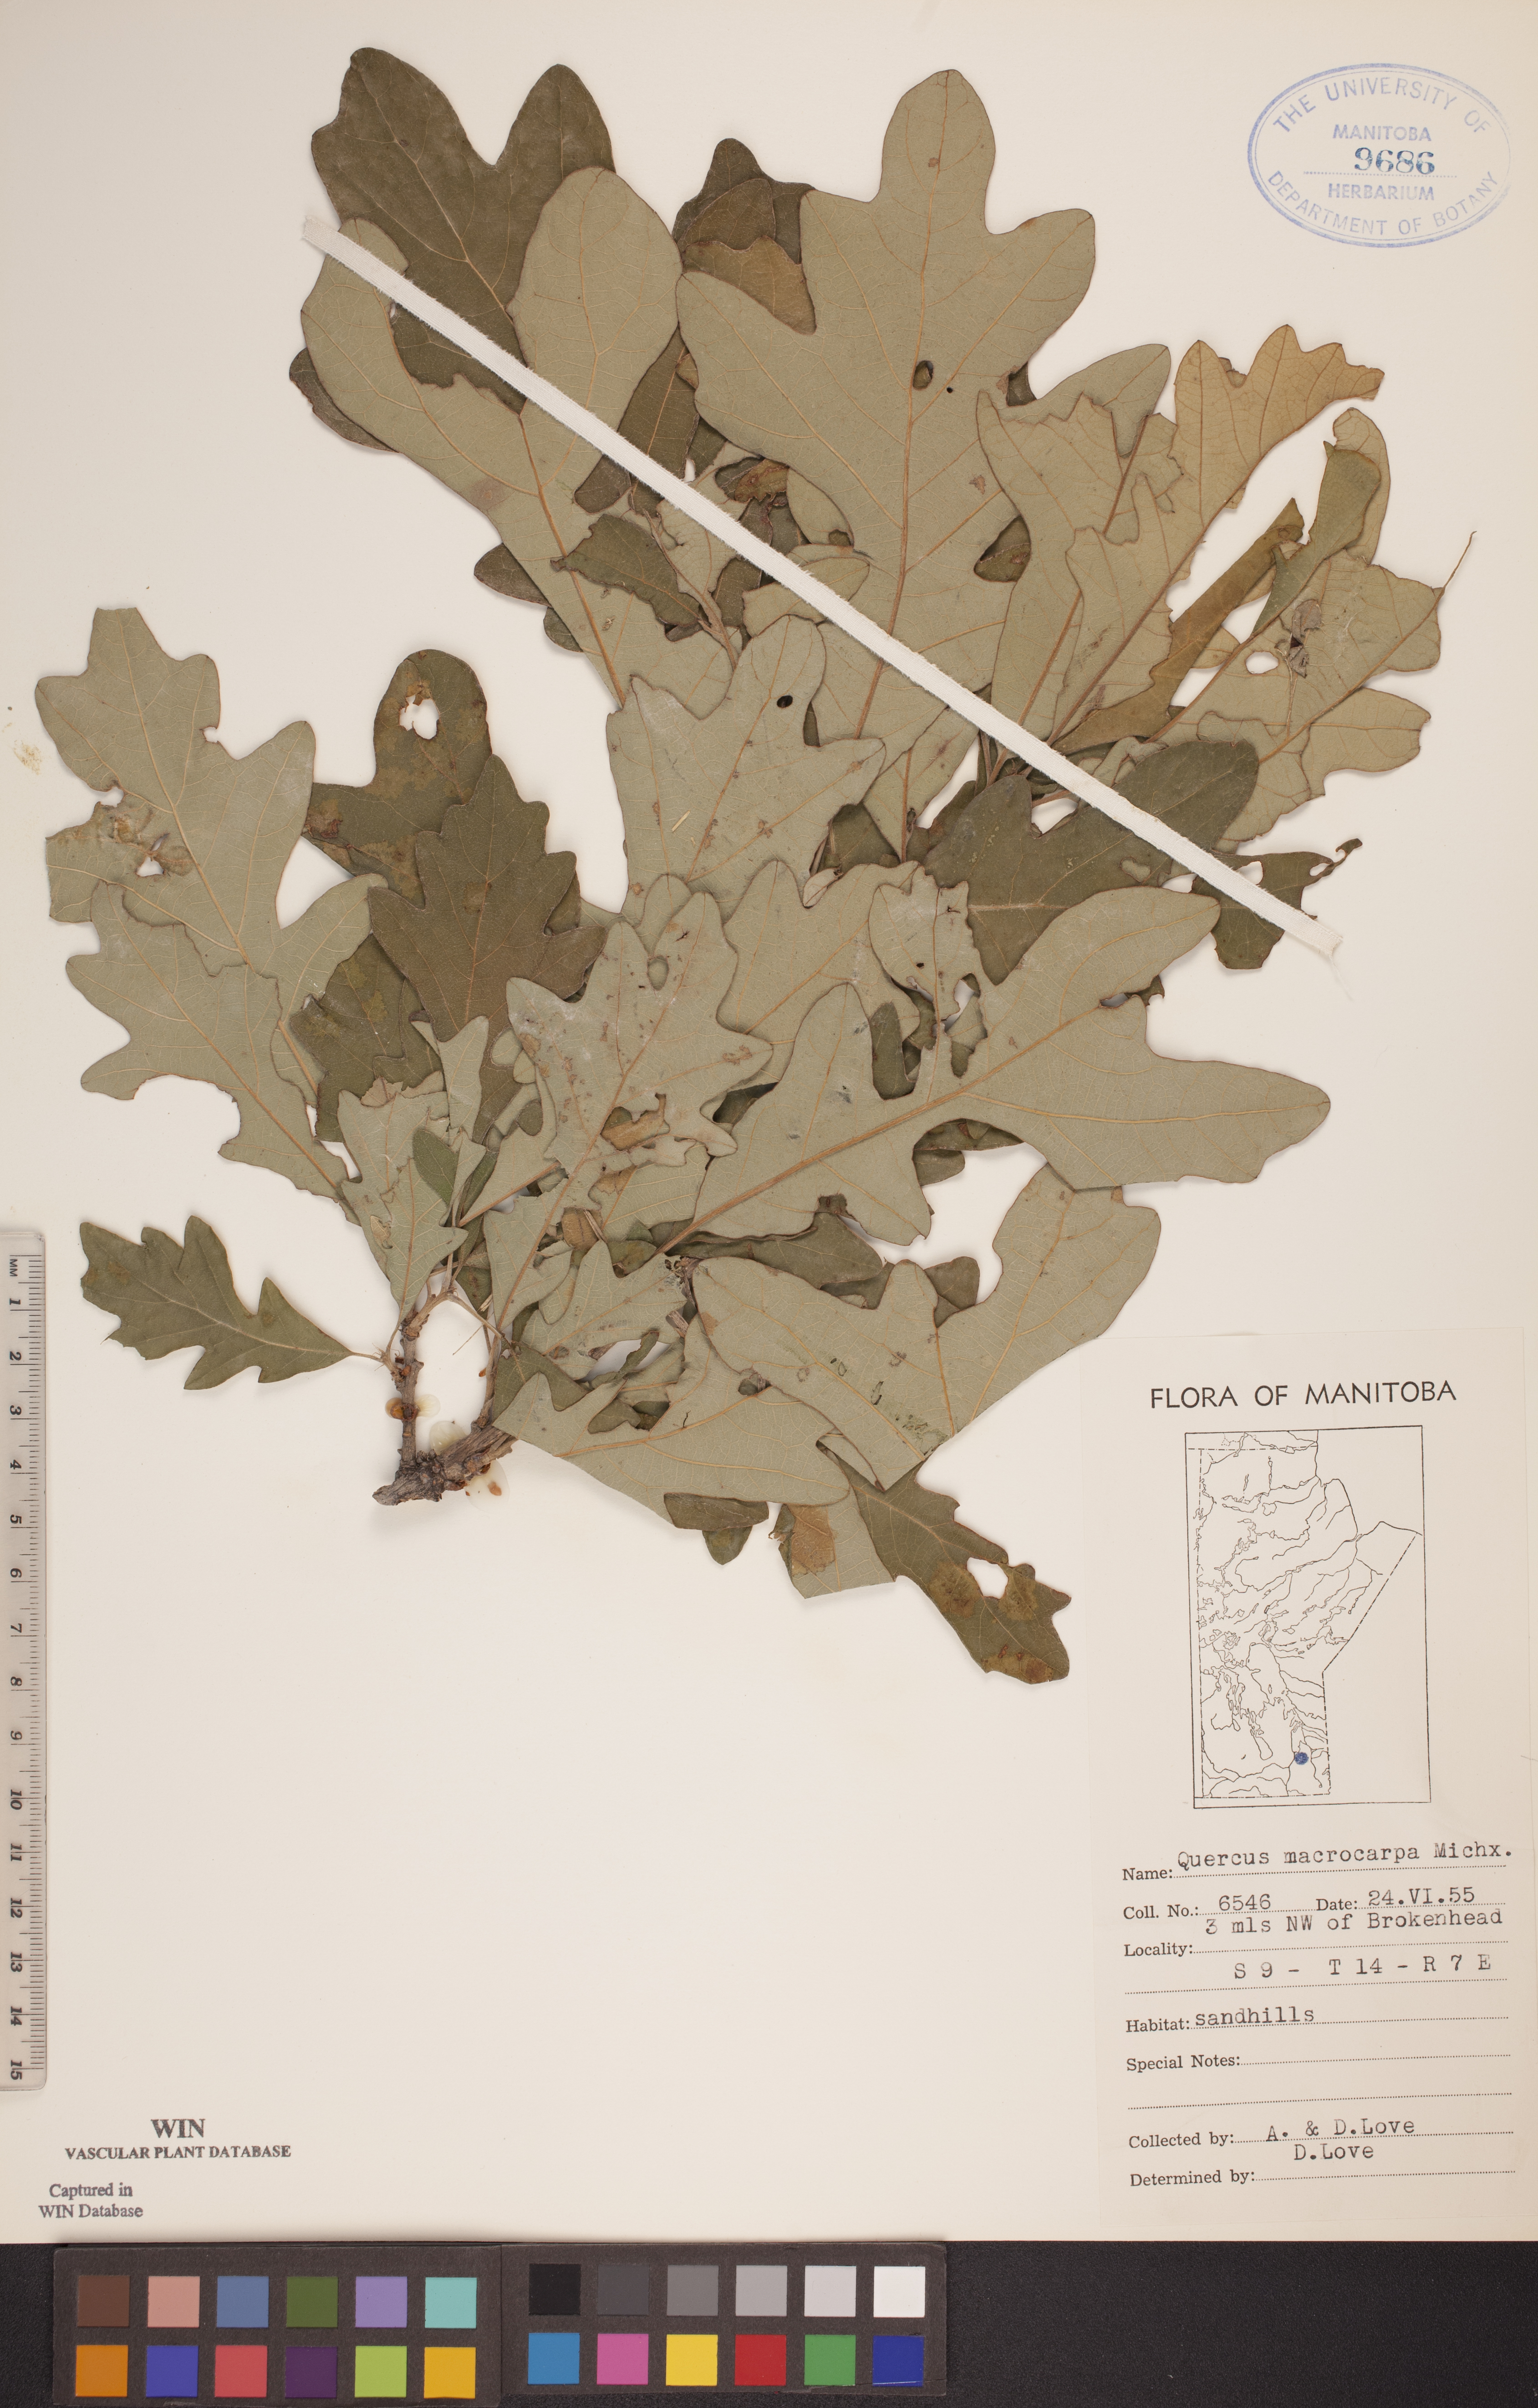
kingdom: Plantae
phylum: Tracheophyta
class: Magnoliopsida
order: Fagales
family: Fagaceae
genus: Quercus
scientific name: Quercus macrocarpa
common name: Bur oak
